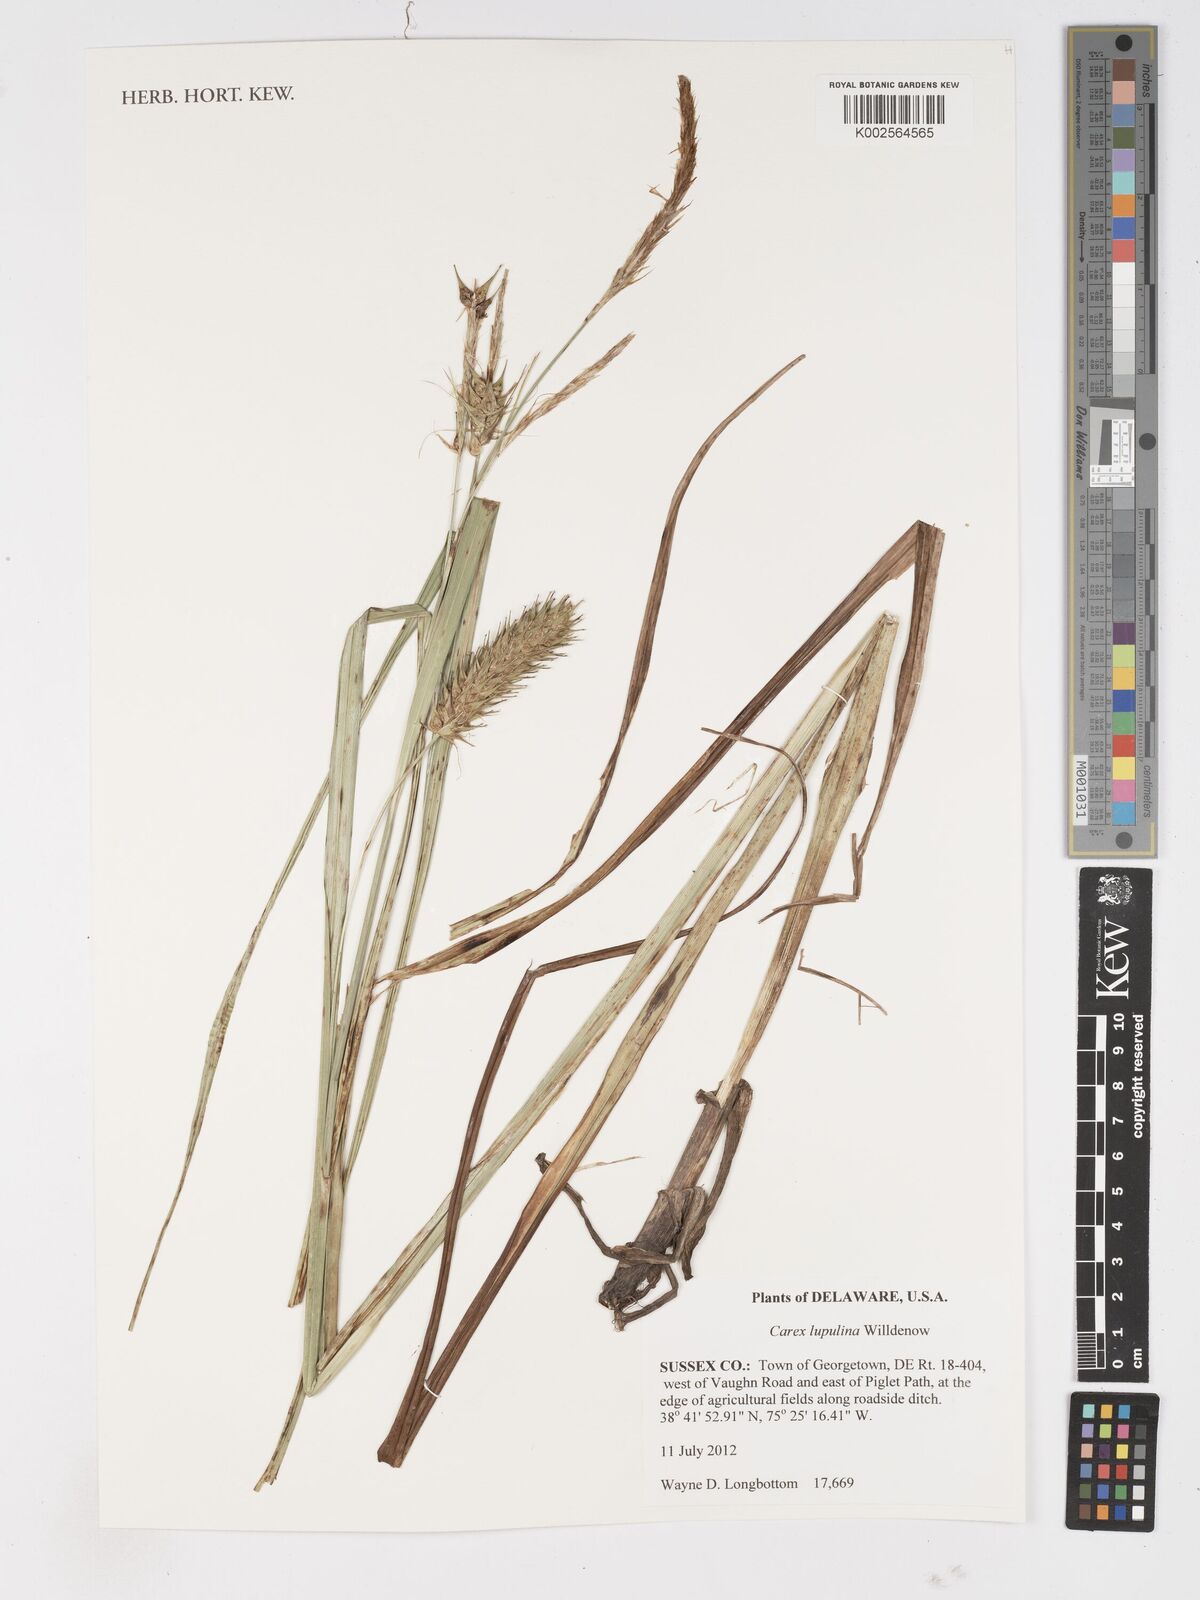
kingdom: Plantae
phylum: Tracheophyta
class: Liliopsida
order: Poales
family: Cyperaceae
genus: Carex
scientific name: Carex lupulina
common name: Hop sedge
